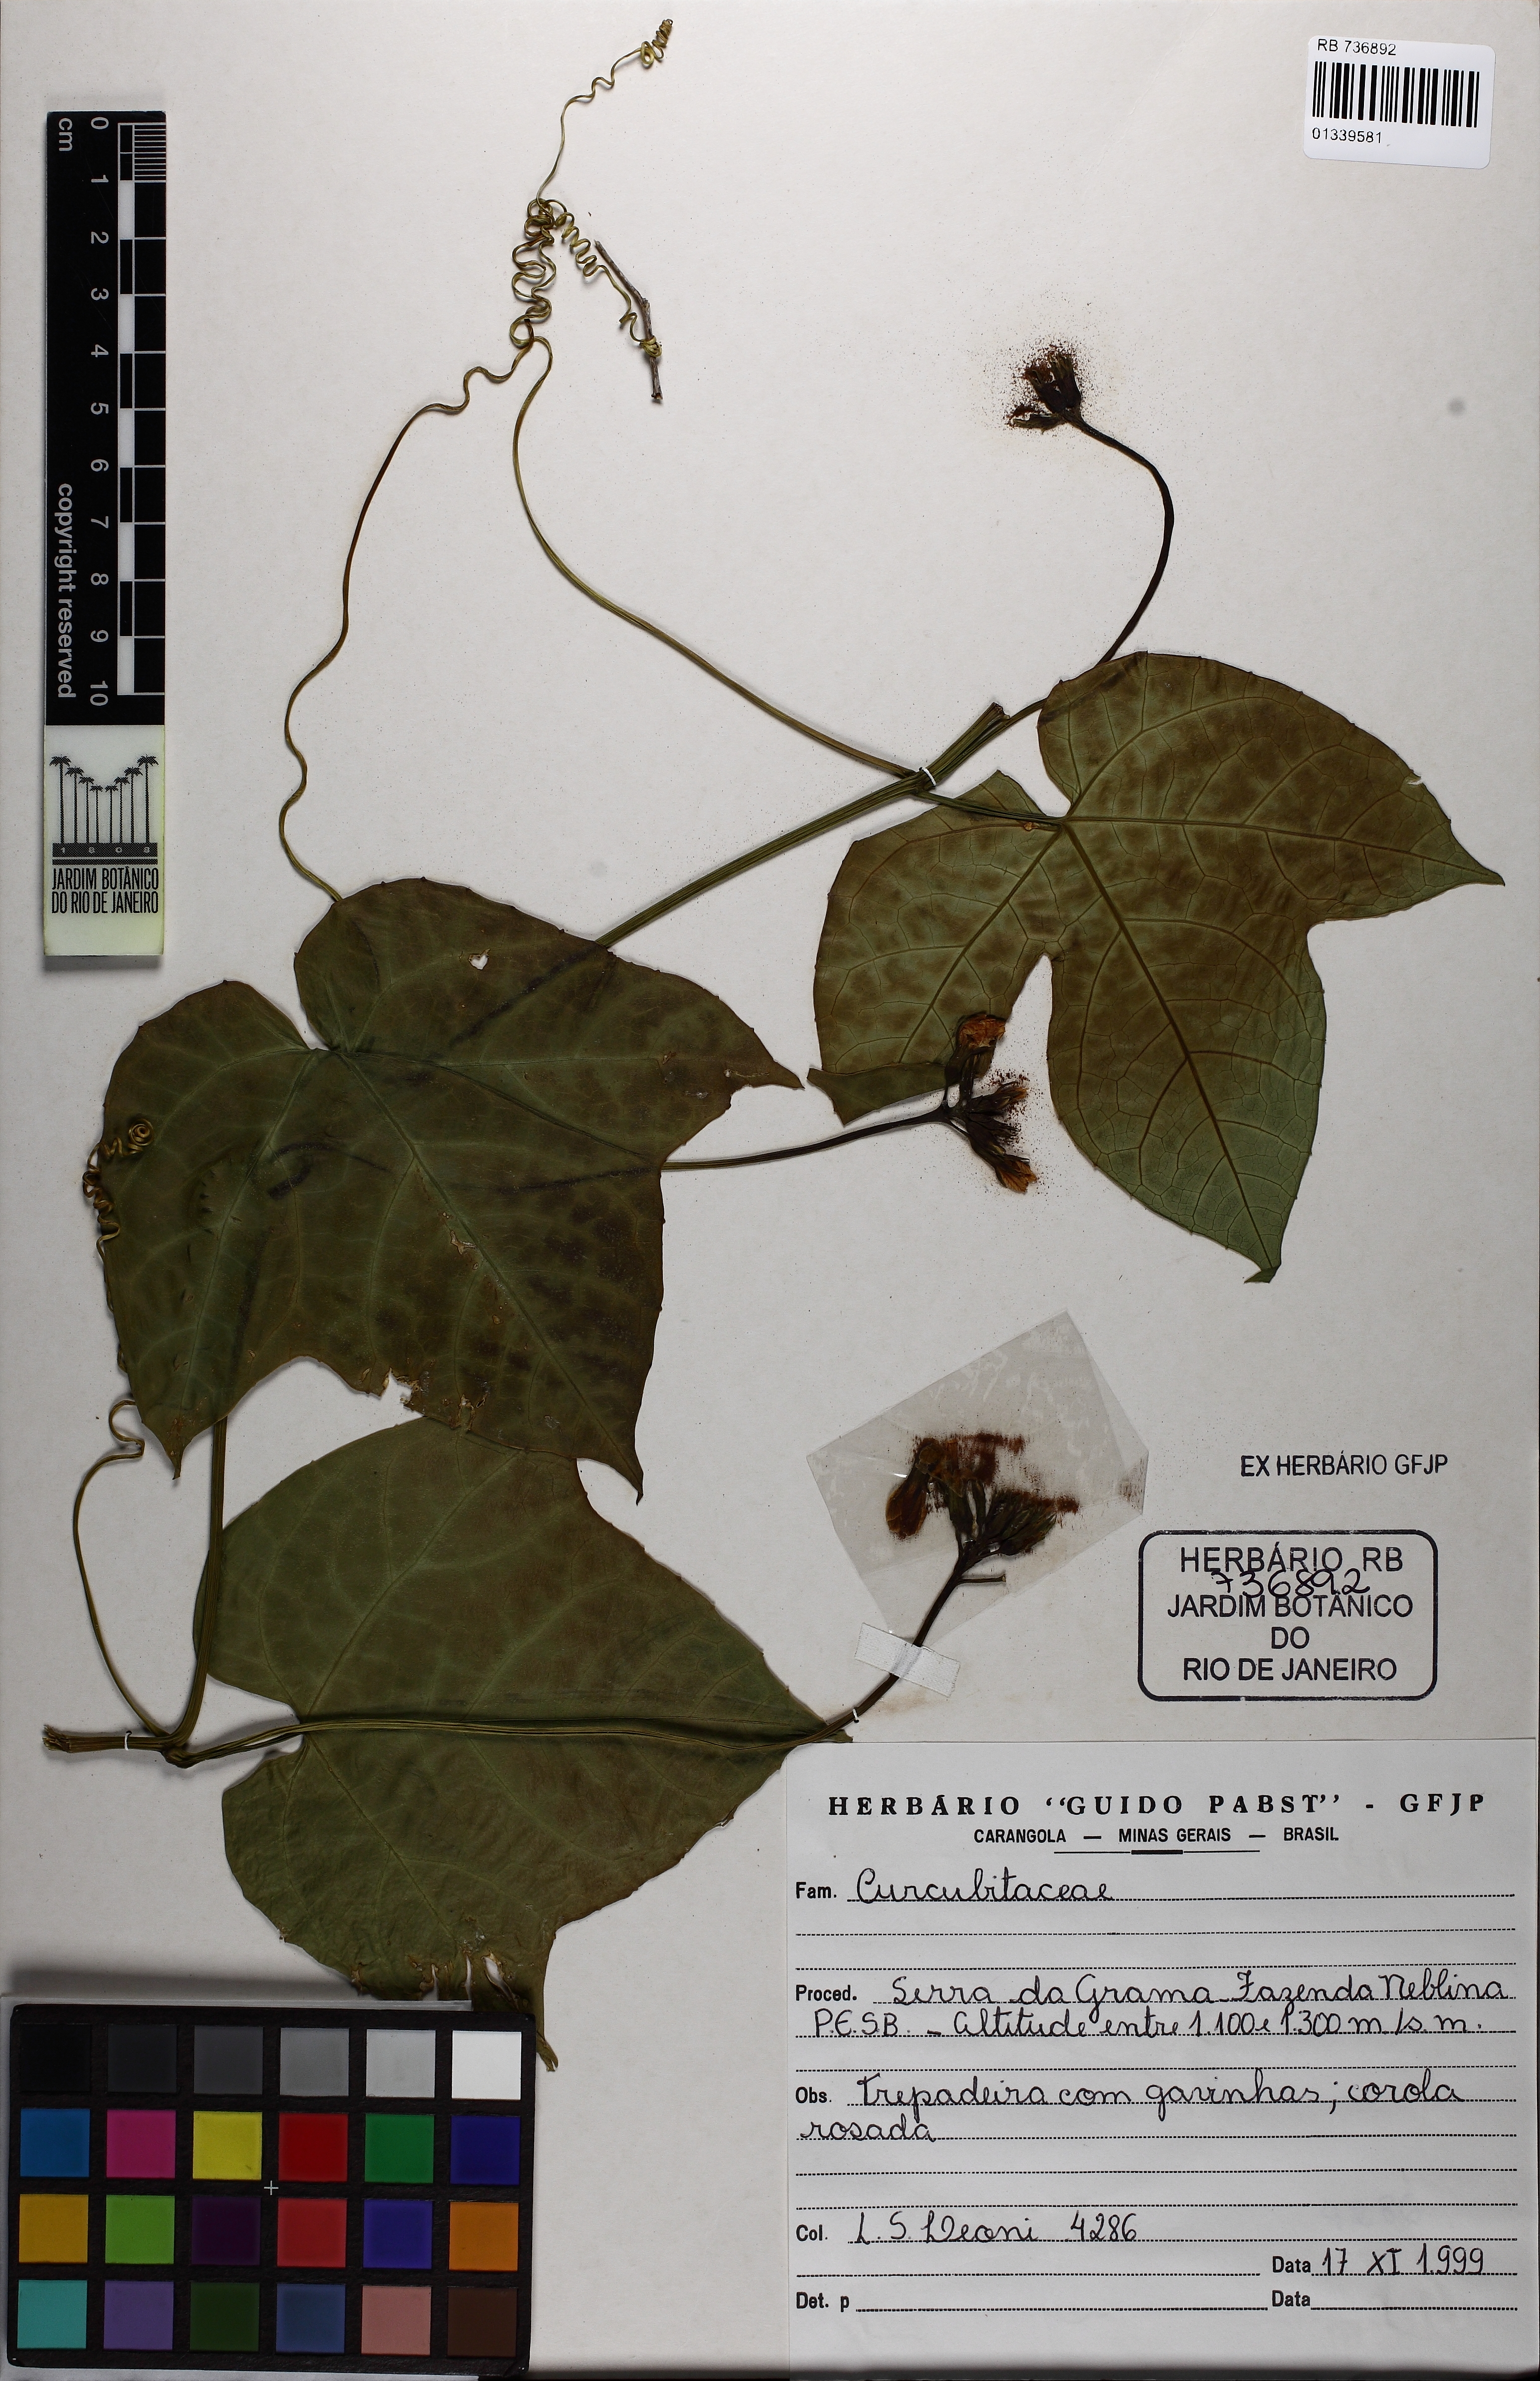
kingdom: Plantae
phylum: Tracheophyta
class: Magnoliopsida
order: Cucurbitales
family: Cucurbitaceae
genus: Psiguria
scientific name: Psiguria
